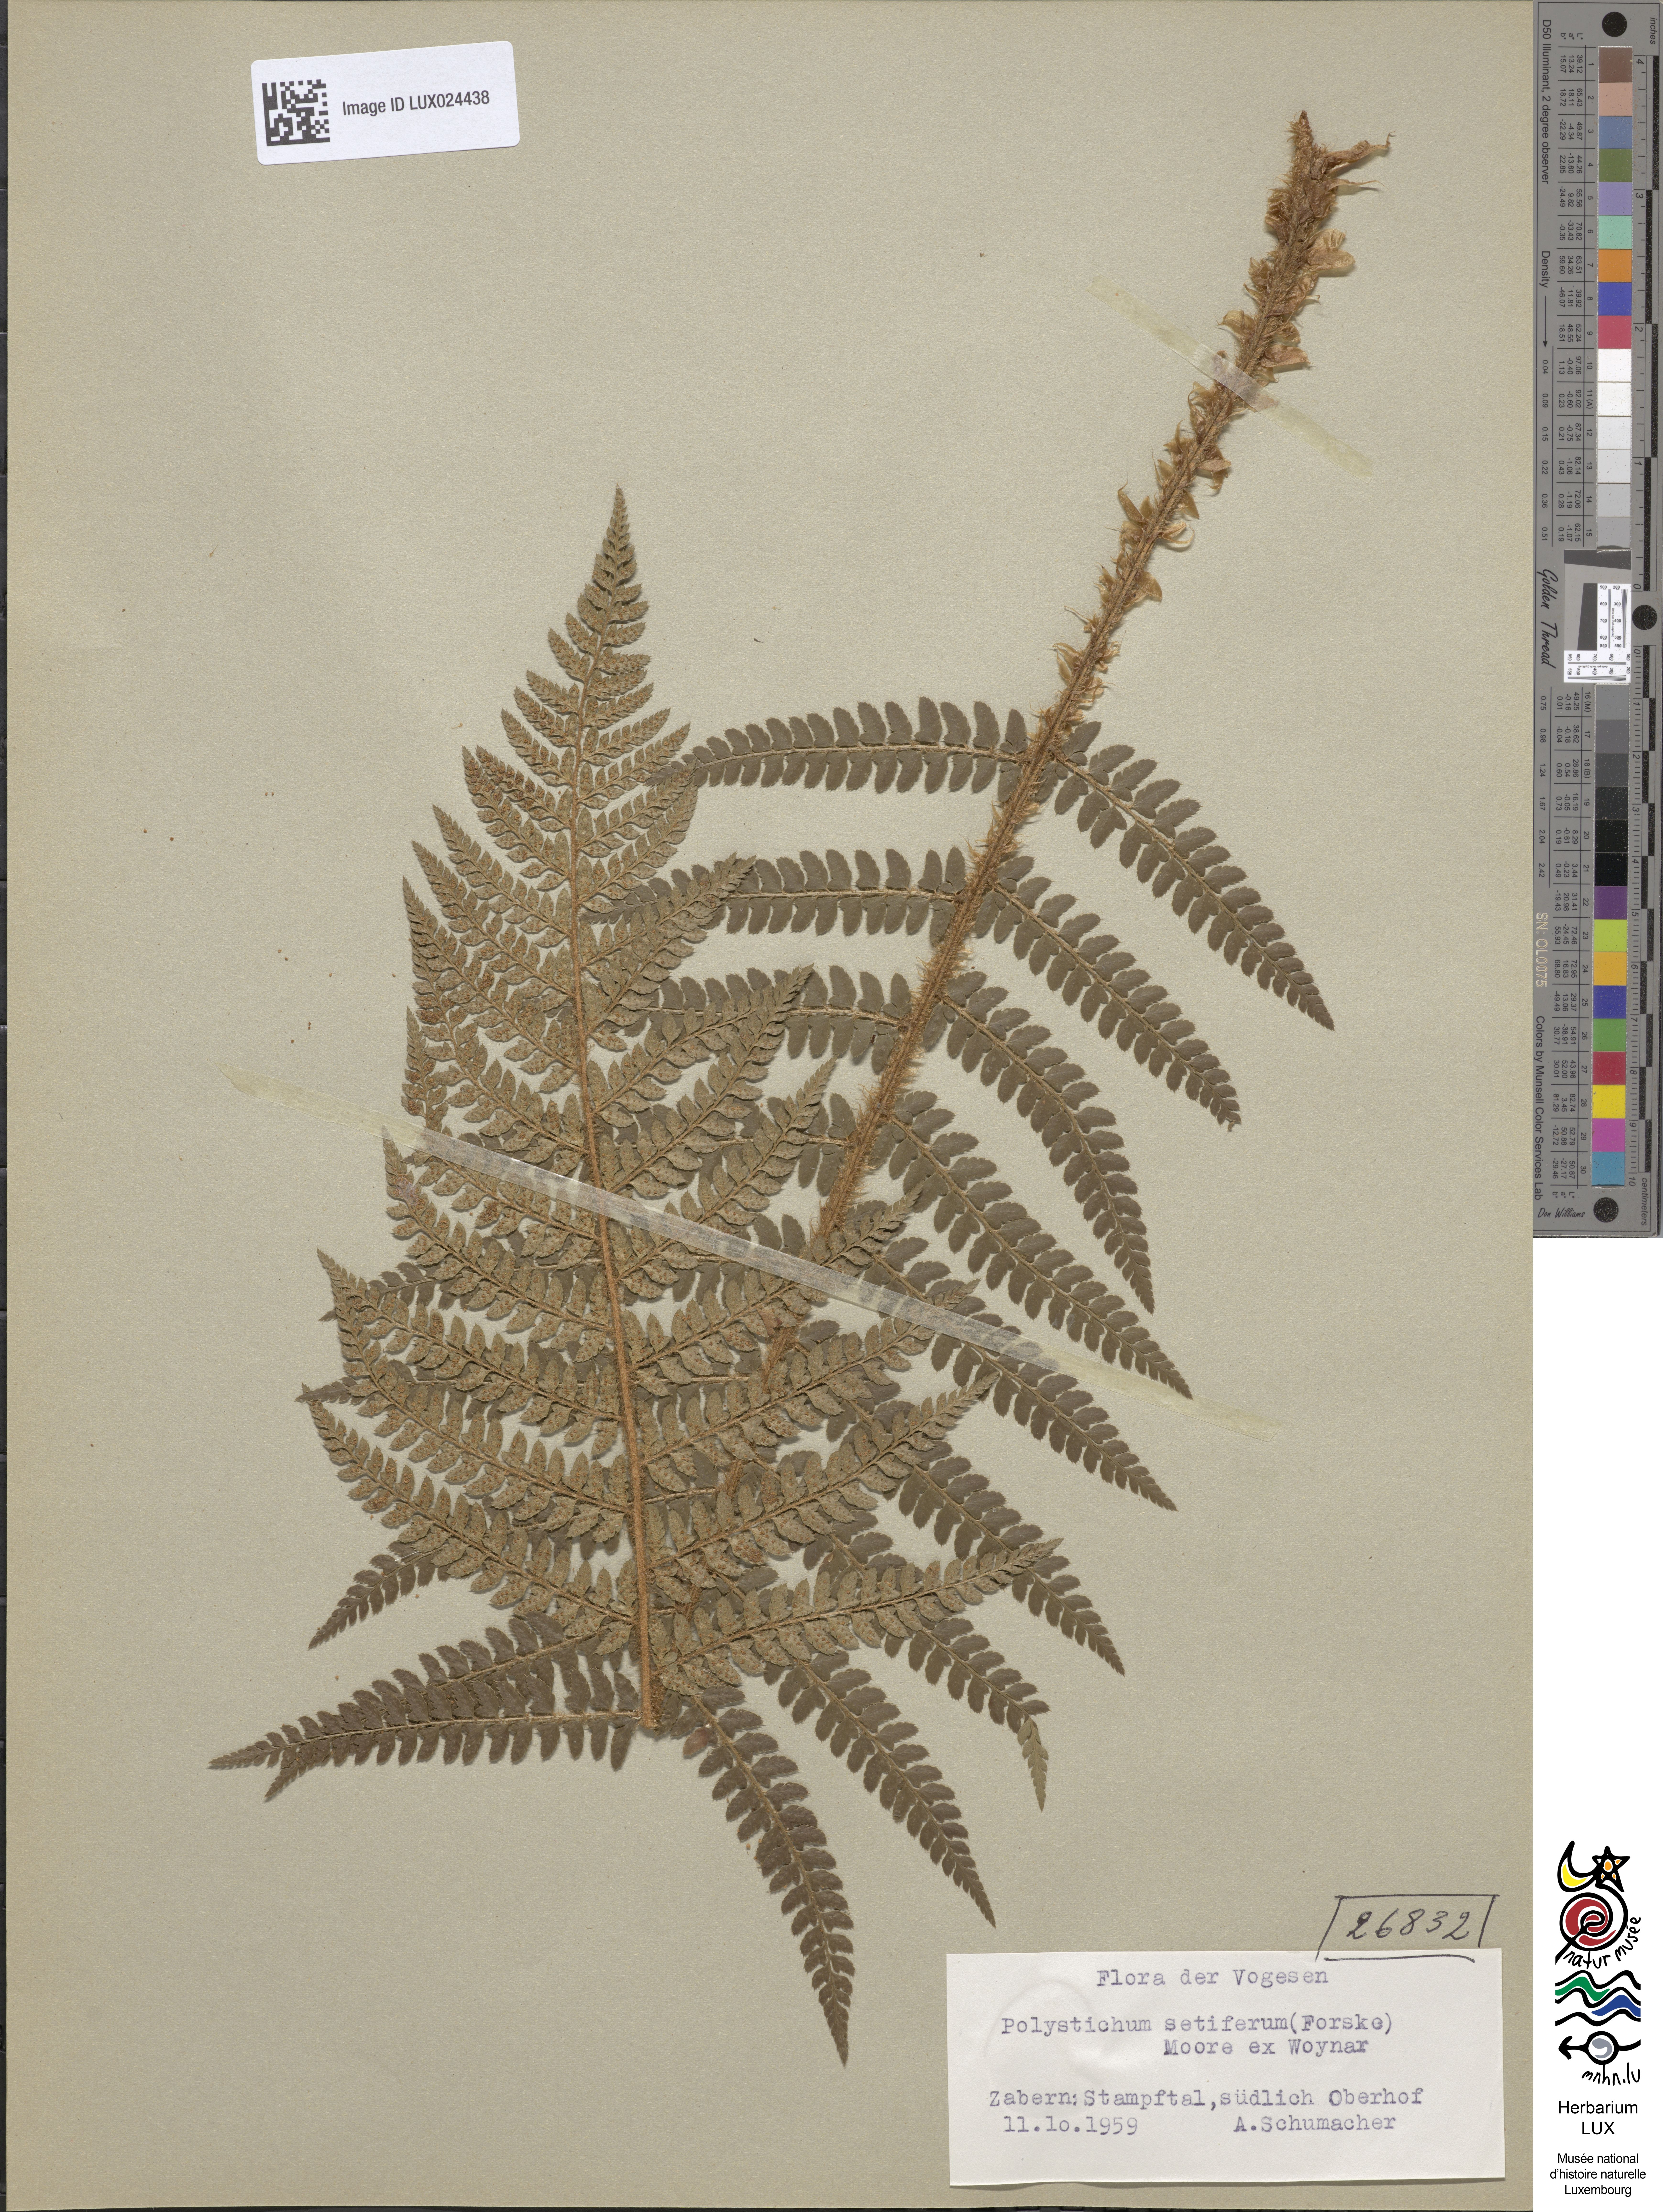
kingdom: Plantae
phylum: Tracheophyta
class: Polypodiopsida
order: Polypodiales
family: Dryopteridaceae
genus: Polystichum
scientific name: Polystichum setiferum
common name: Soft shield-fern
